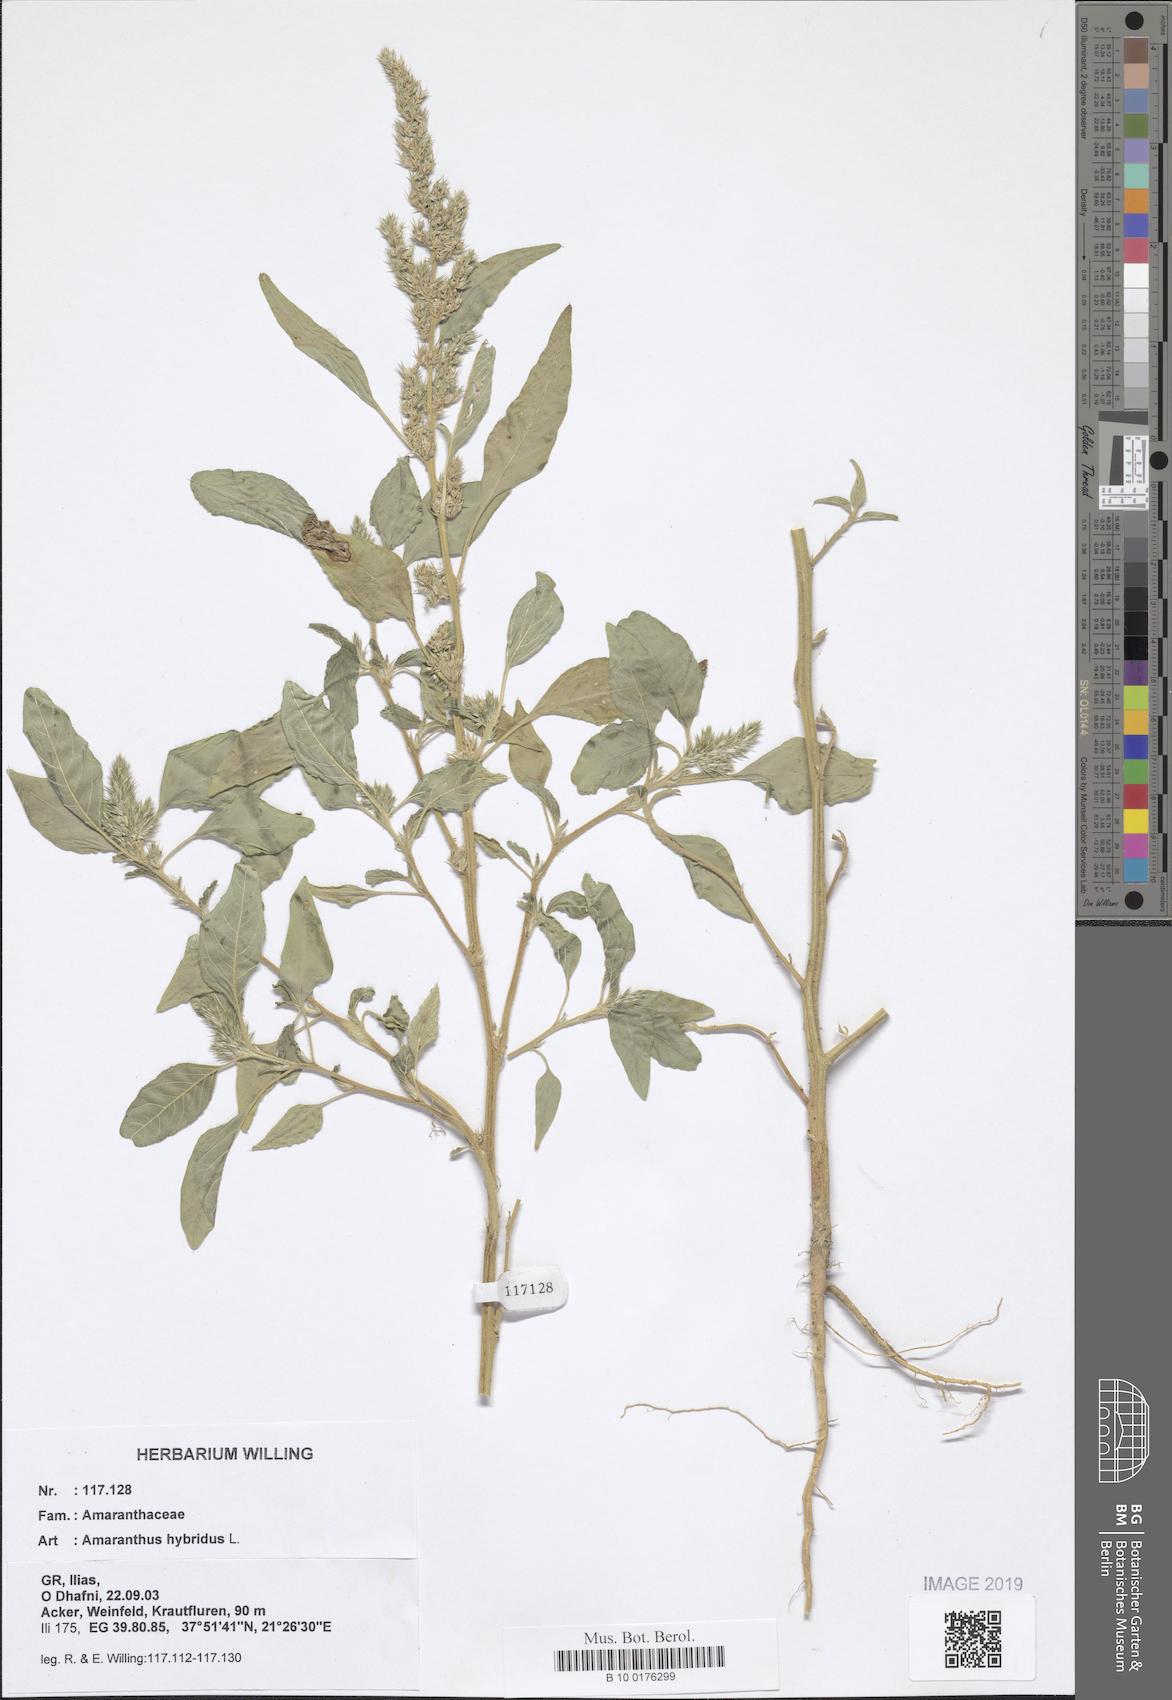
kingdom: Plantae
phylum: Tracheophyta
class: Magnoliopsida
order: Caryophyllales
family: Amaranthaceae
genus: Amaranthus
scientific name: Amaranthus hybridus
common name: Green amaranth
